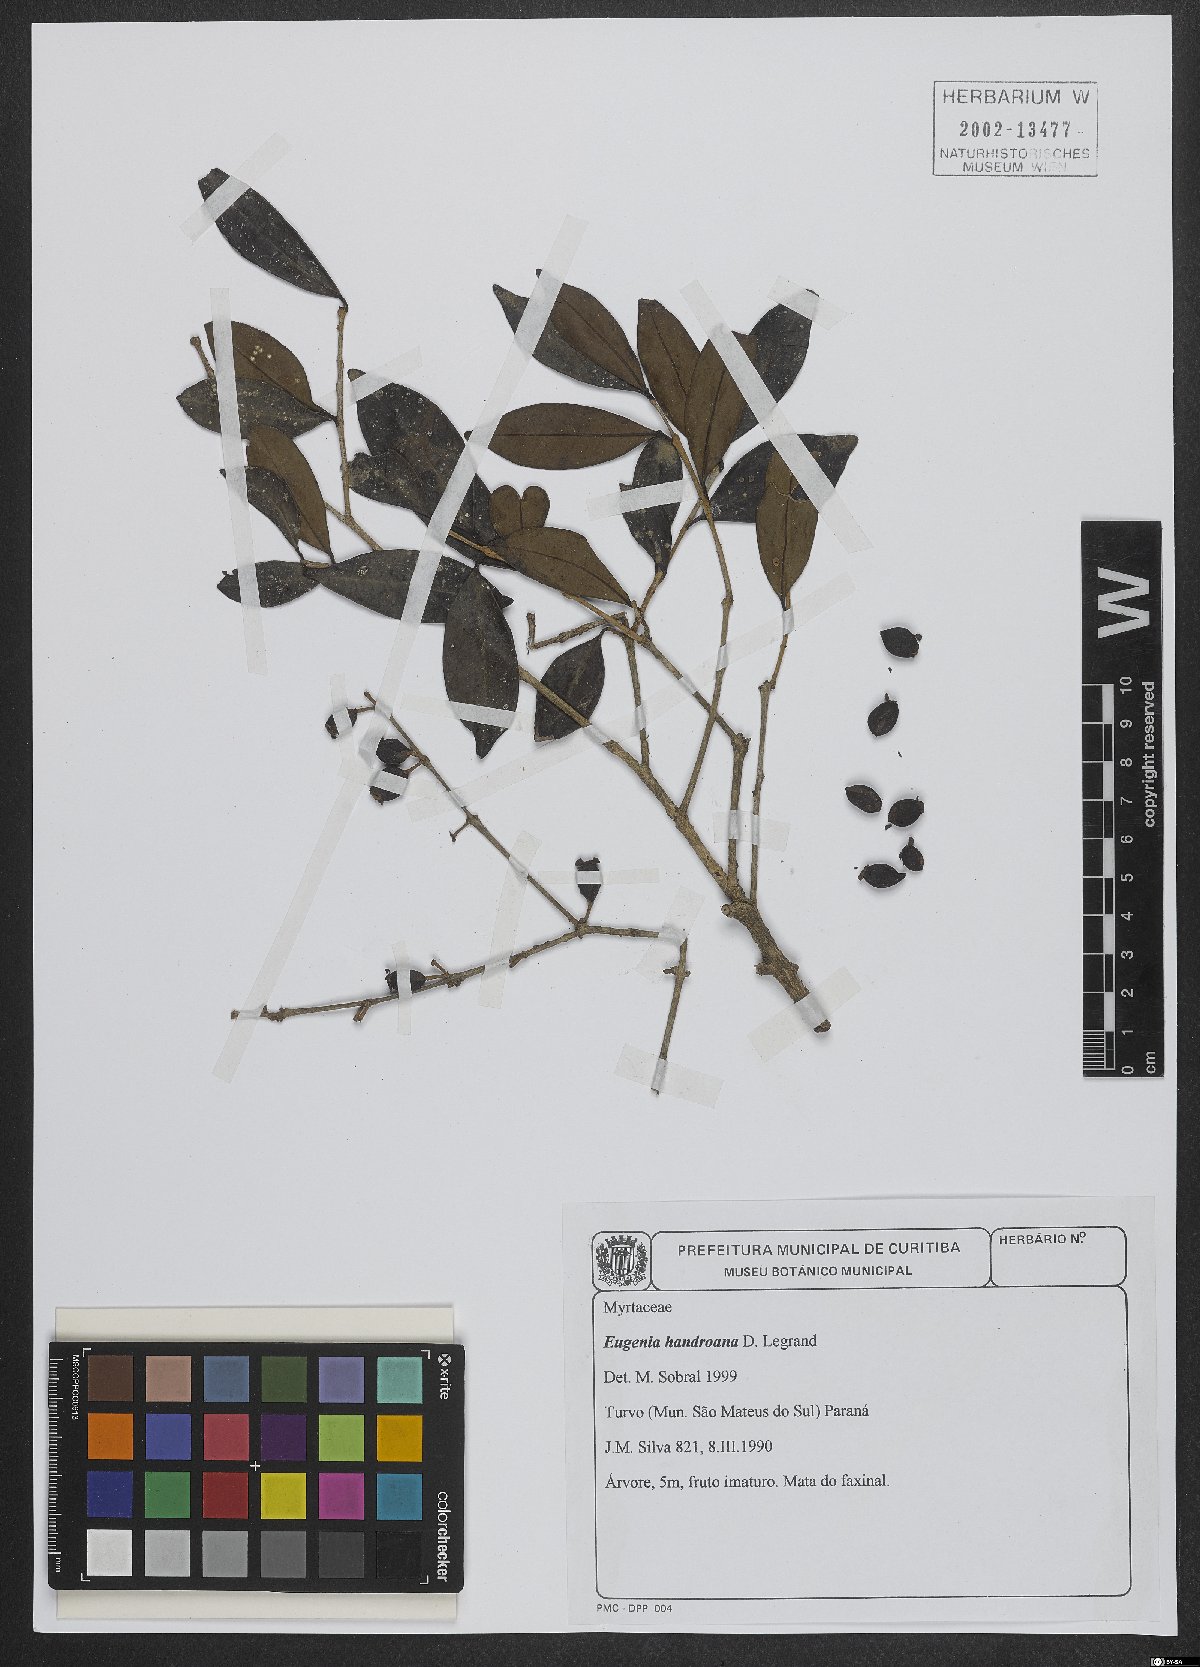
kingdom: Plantae
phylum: Tracheophyta
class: Magnoliopsida
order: Myrtales
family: Myrtaceae
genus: Eugenia
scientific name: Eugenia handroana
